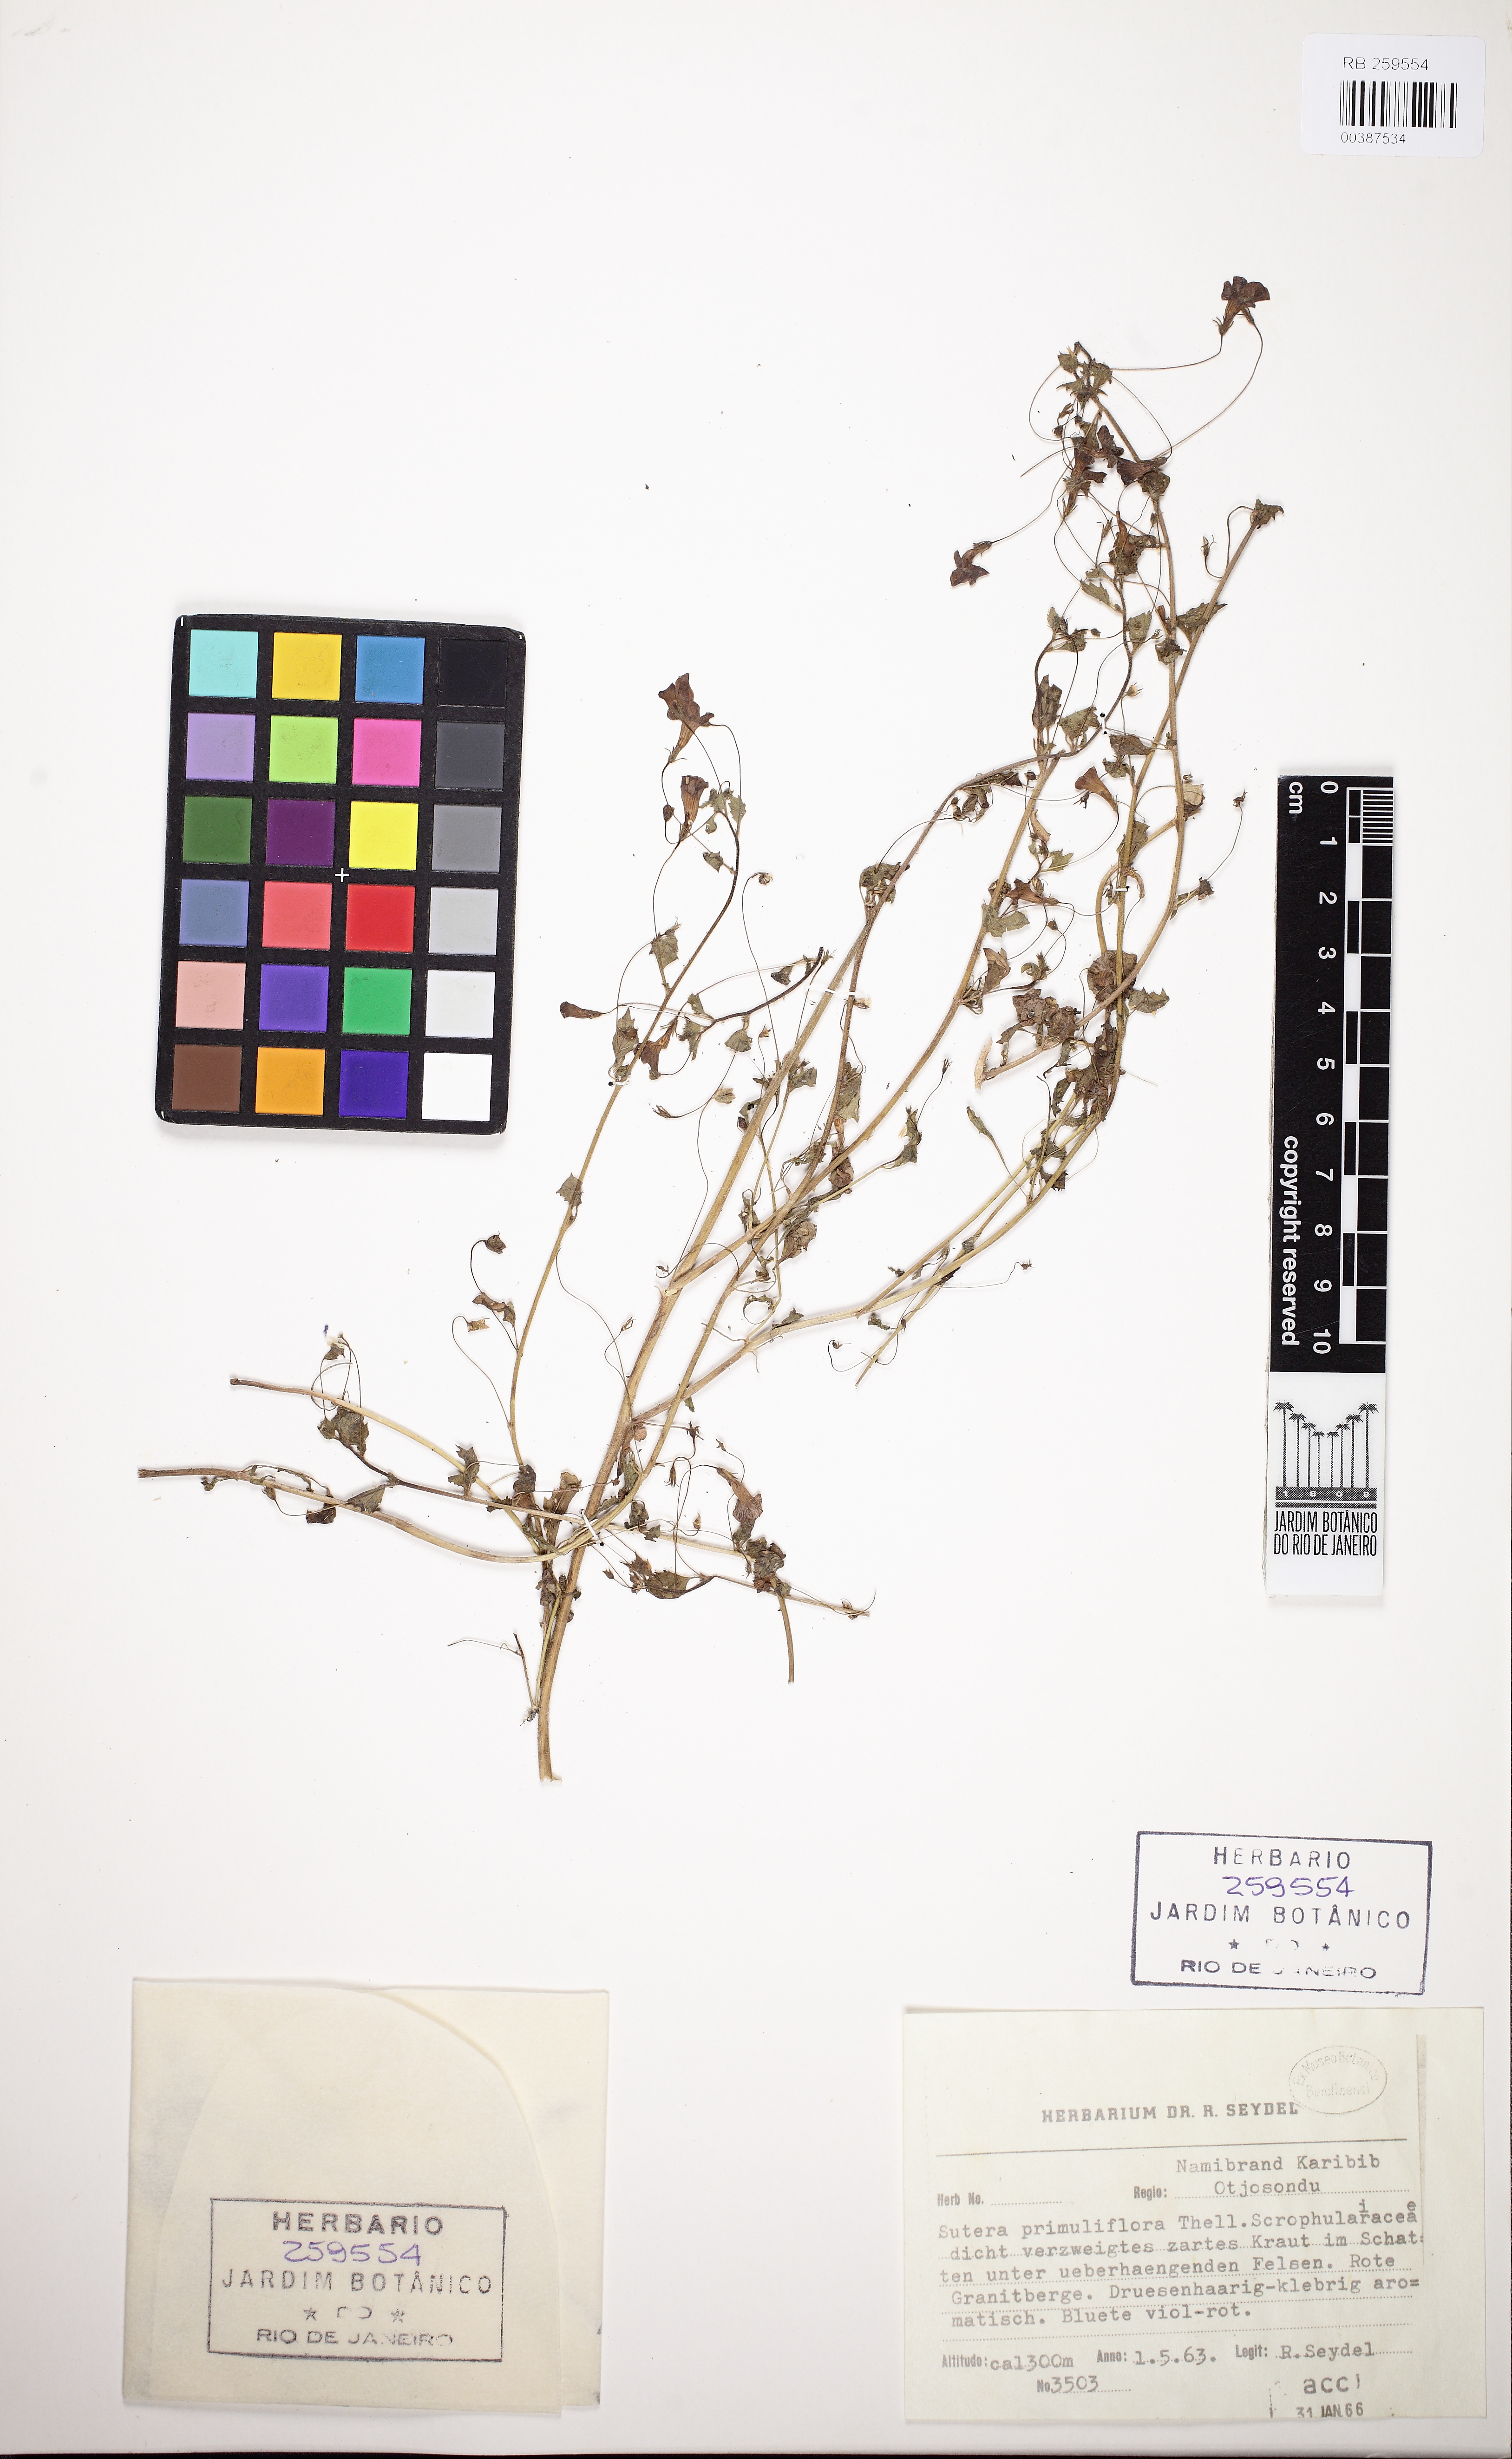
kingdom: Plantae
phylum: Tracheophyta
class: Magnoliopsida
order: Lamiales
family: Scrophulariaceae
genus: Jamesbrittenia
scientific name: Jamesbrittenia primuliflora
